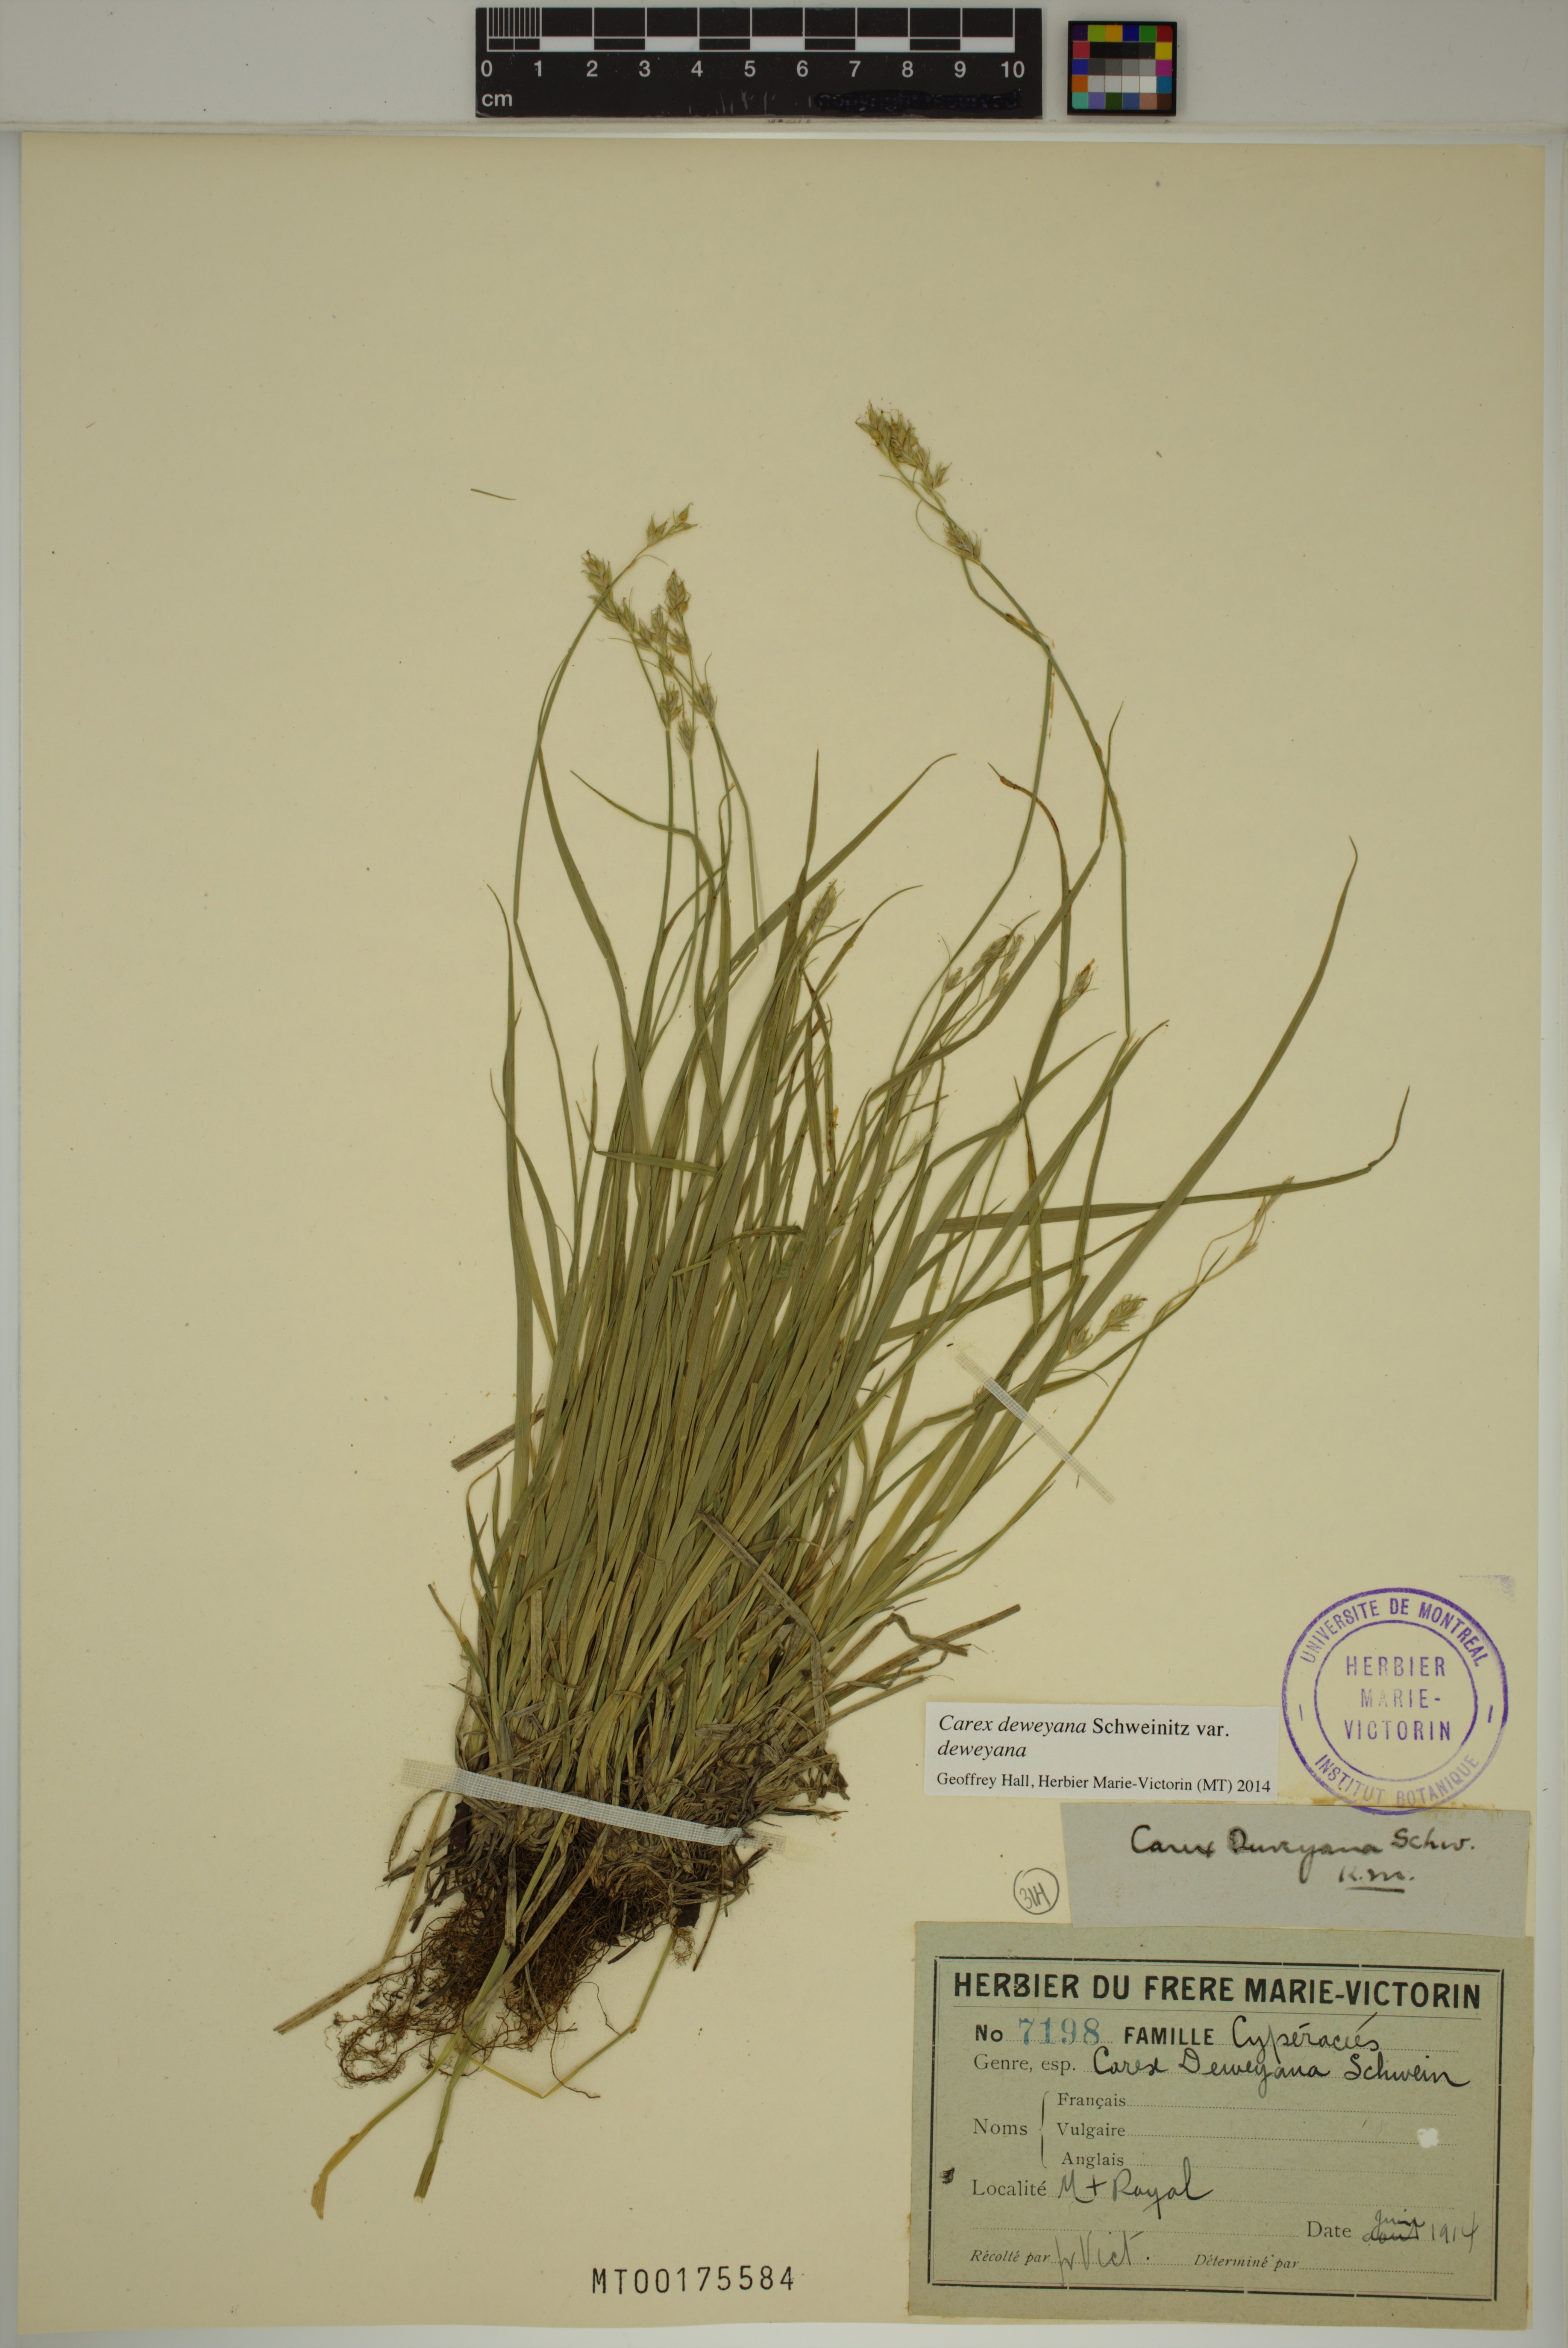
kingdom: Plantae
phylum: Tracheophyta
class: Liliopsida
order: Poales
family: Cyperaceae
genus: Carex
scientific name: Carex deweyana
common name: Dewey's sedge
